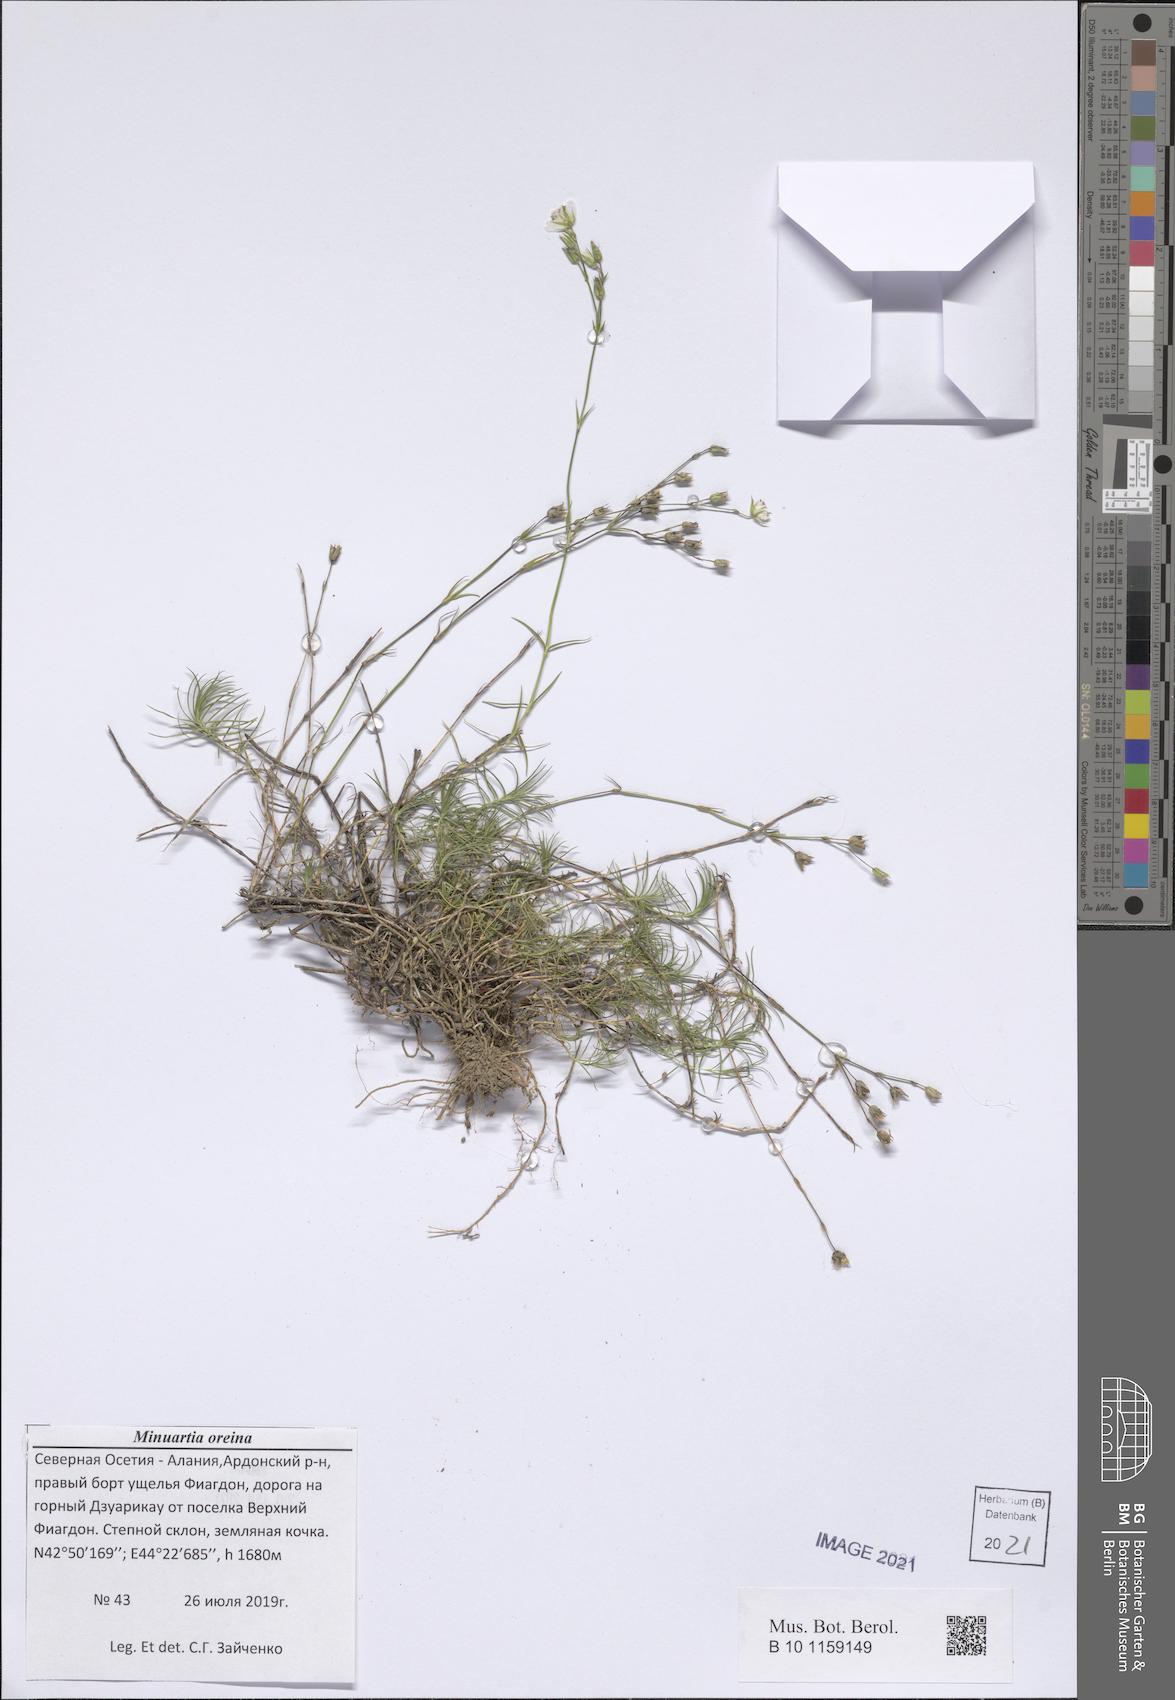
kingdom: Plantae
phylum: Tracheophyta
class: Magnoliopsida
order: Caryophyllales
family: Caryophyllaceae
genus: Minuartia
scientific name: Minuartia hirsuta
